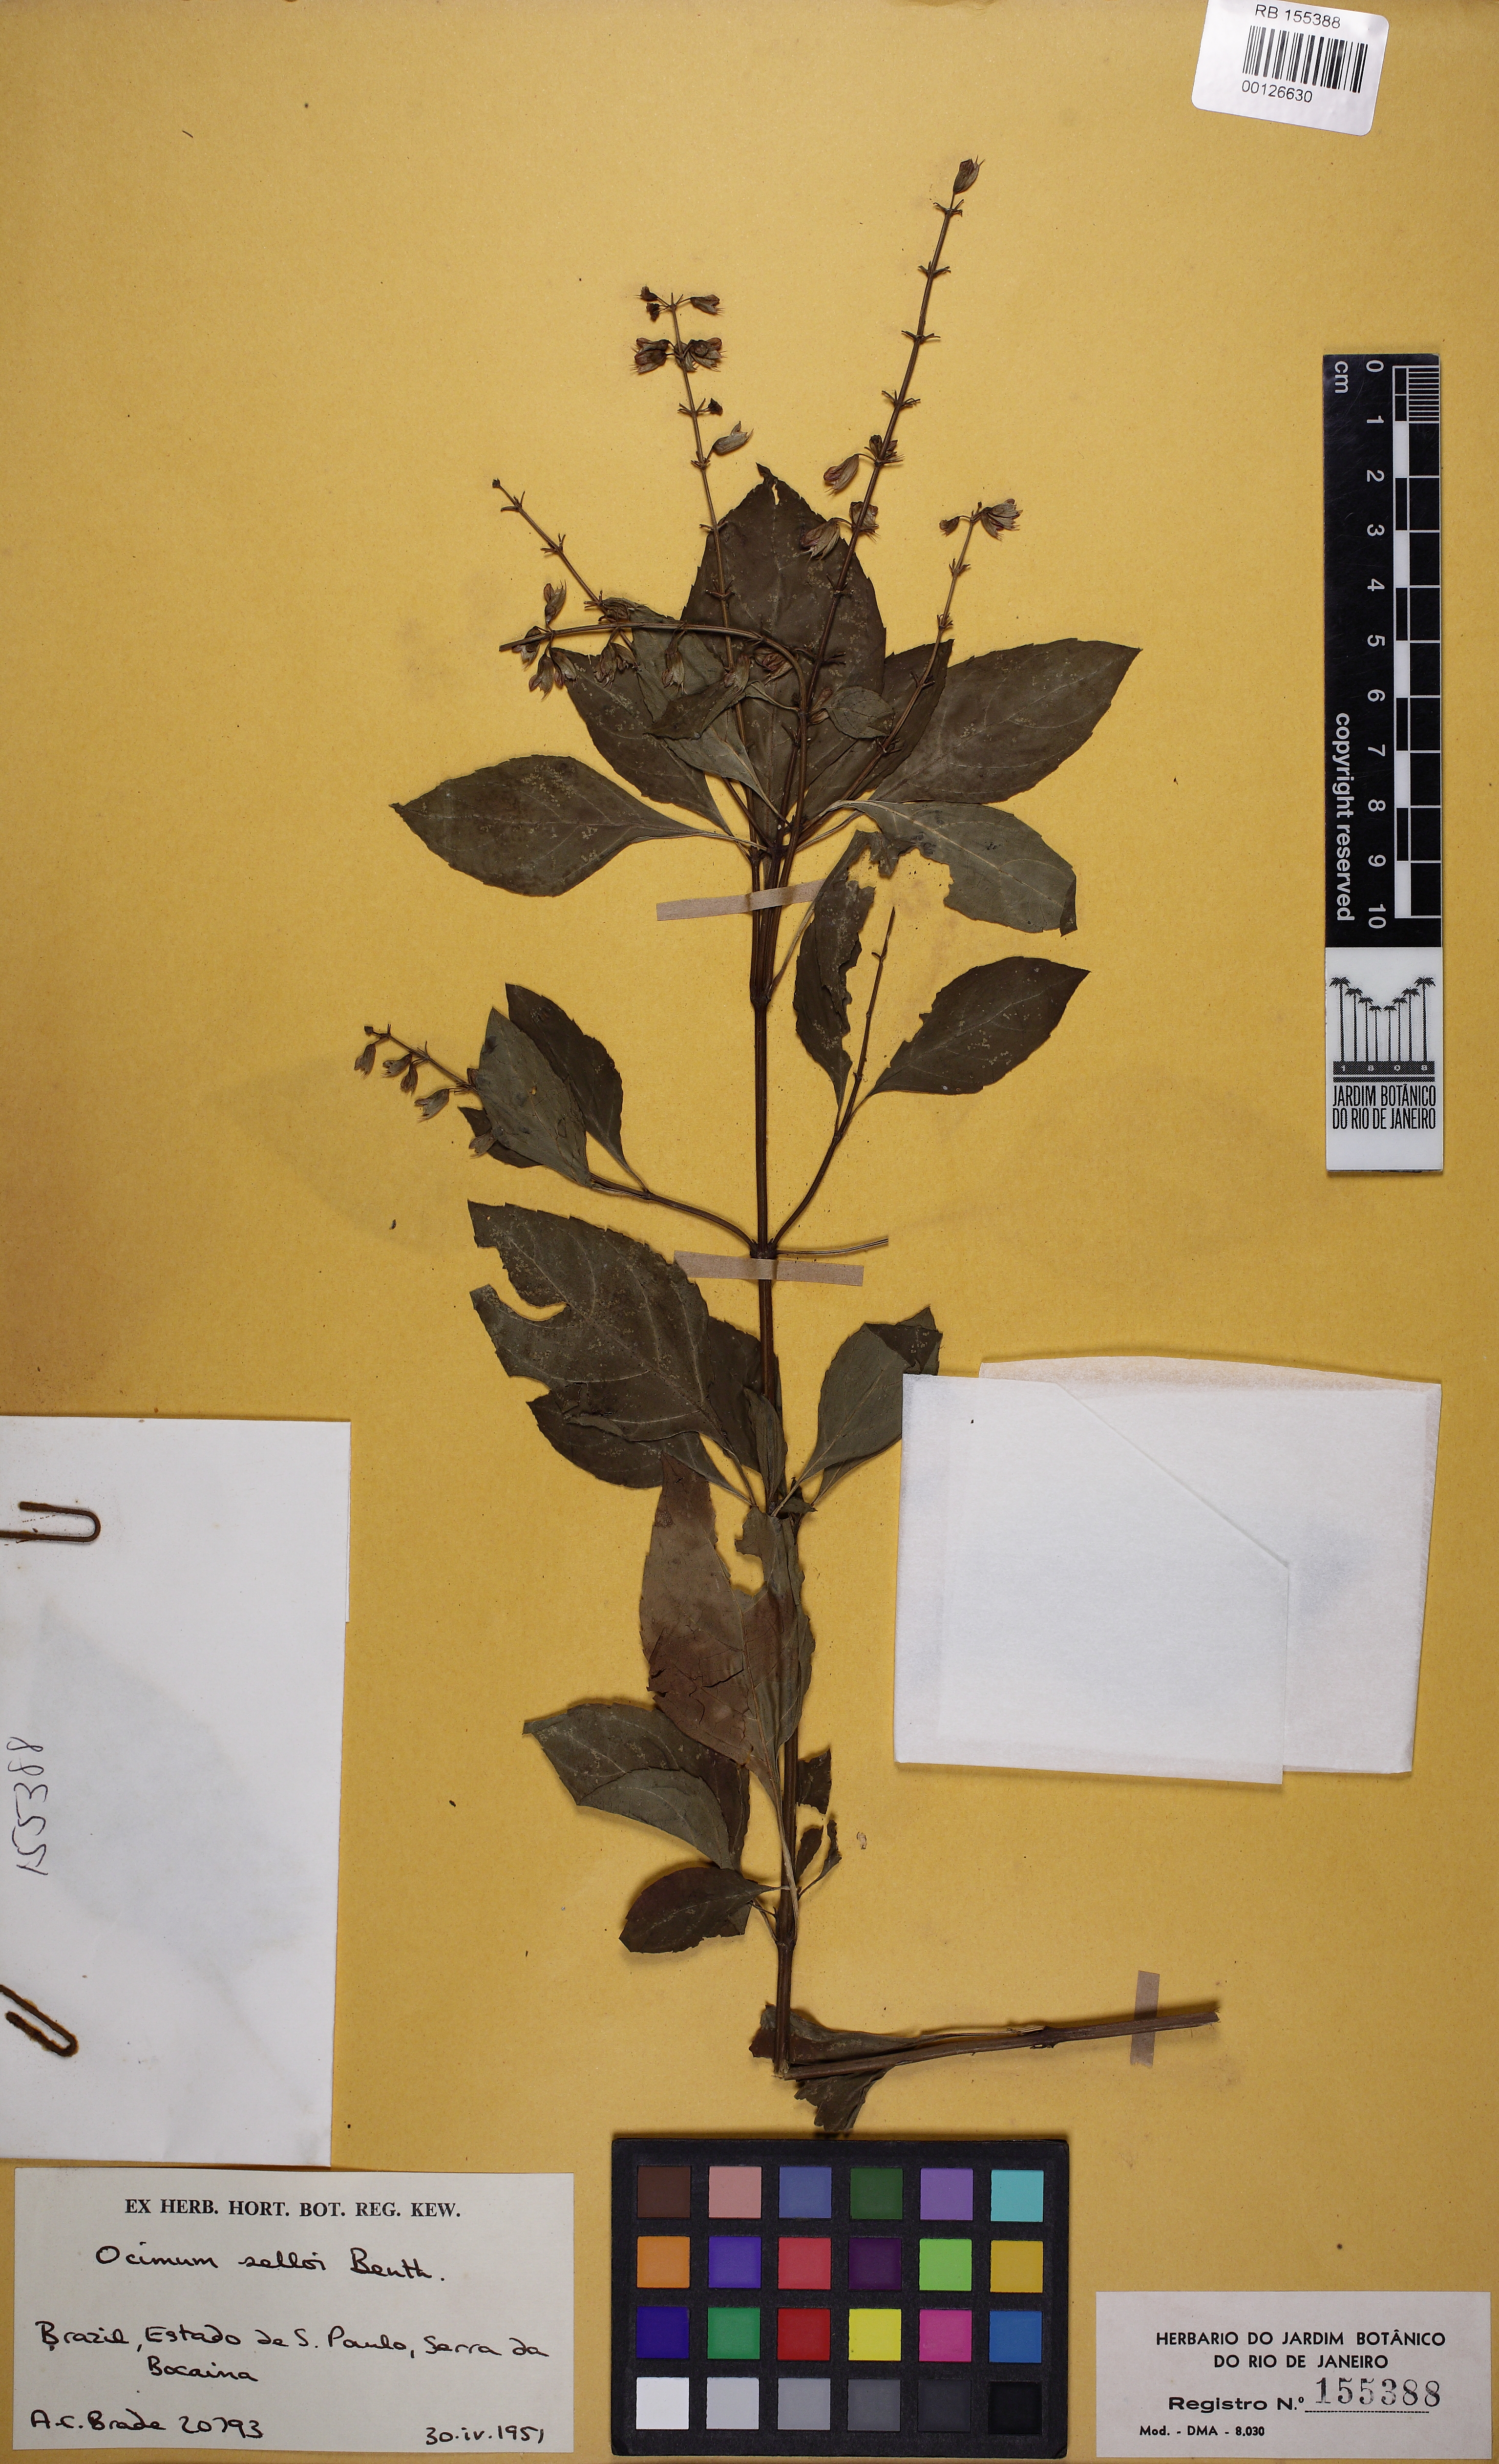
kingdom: Plantae
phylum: Tracheophyta
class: Magnoliopsida
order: Lamiales
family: Lamiaceae
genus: Ocimum
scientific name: Ocimum carnosum
